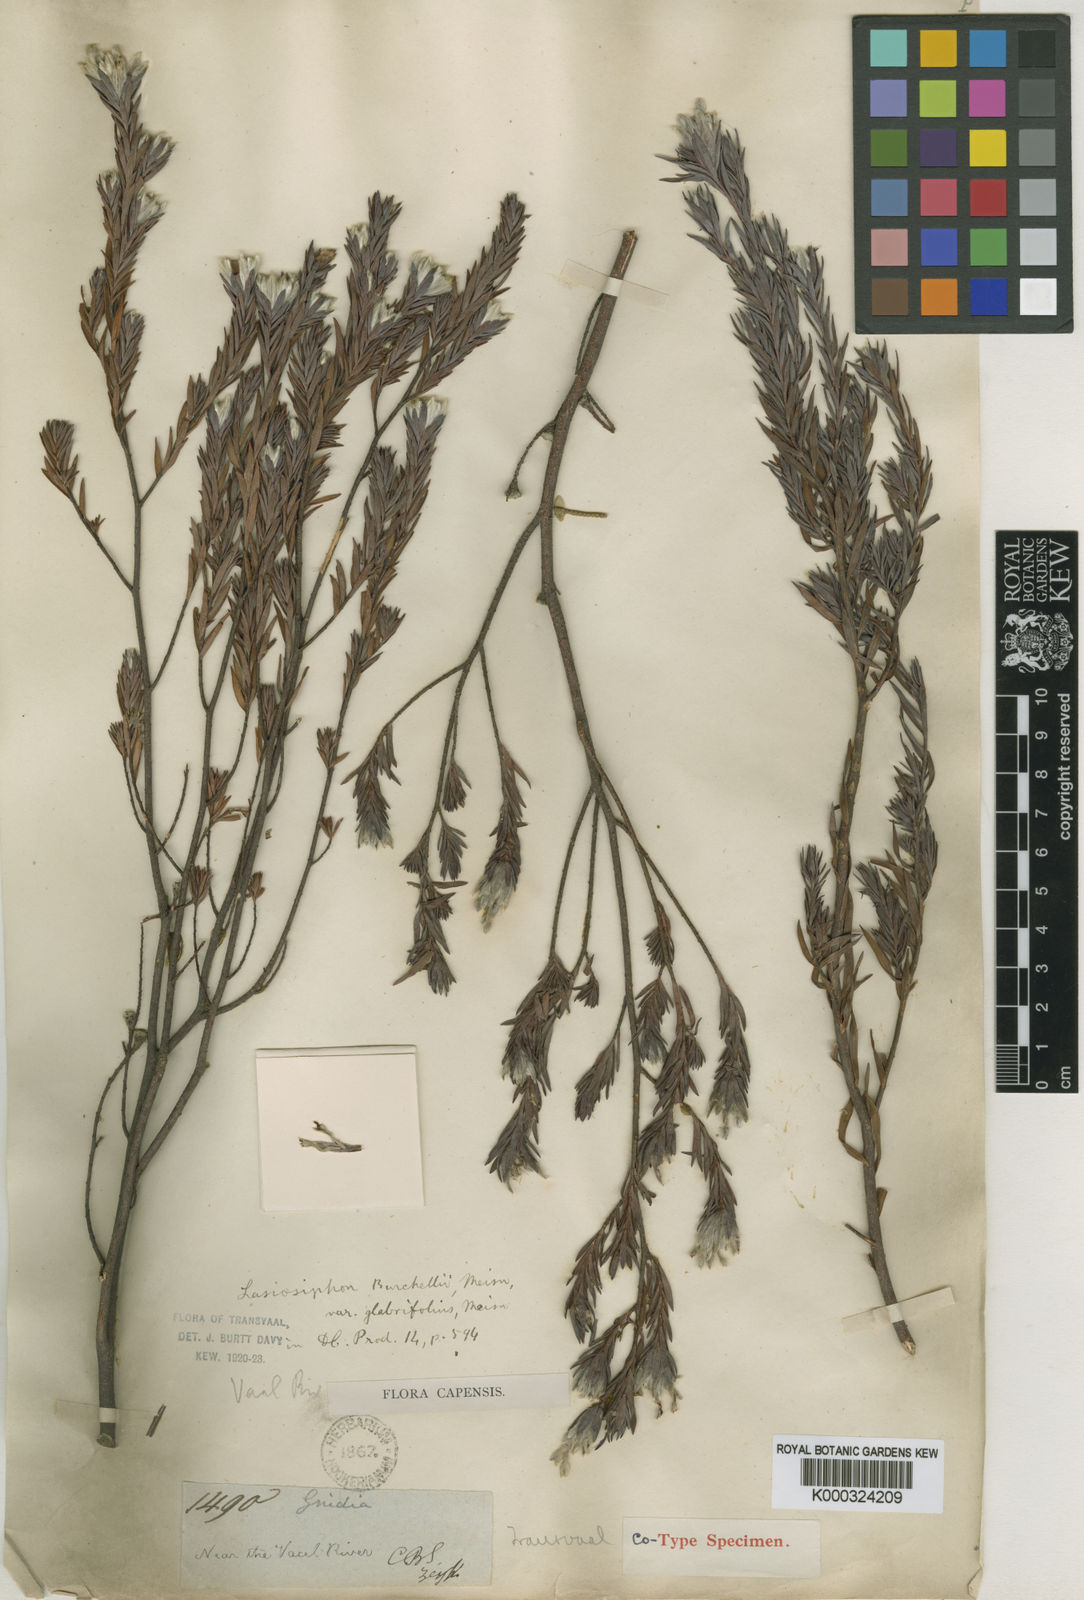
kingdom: Plantae
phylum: Tracheophyta
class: Magnoliopsida
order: Malvales
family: Thymelaeaceae
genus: Gnidia
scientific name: Gnidia burchellii
